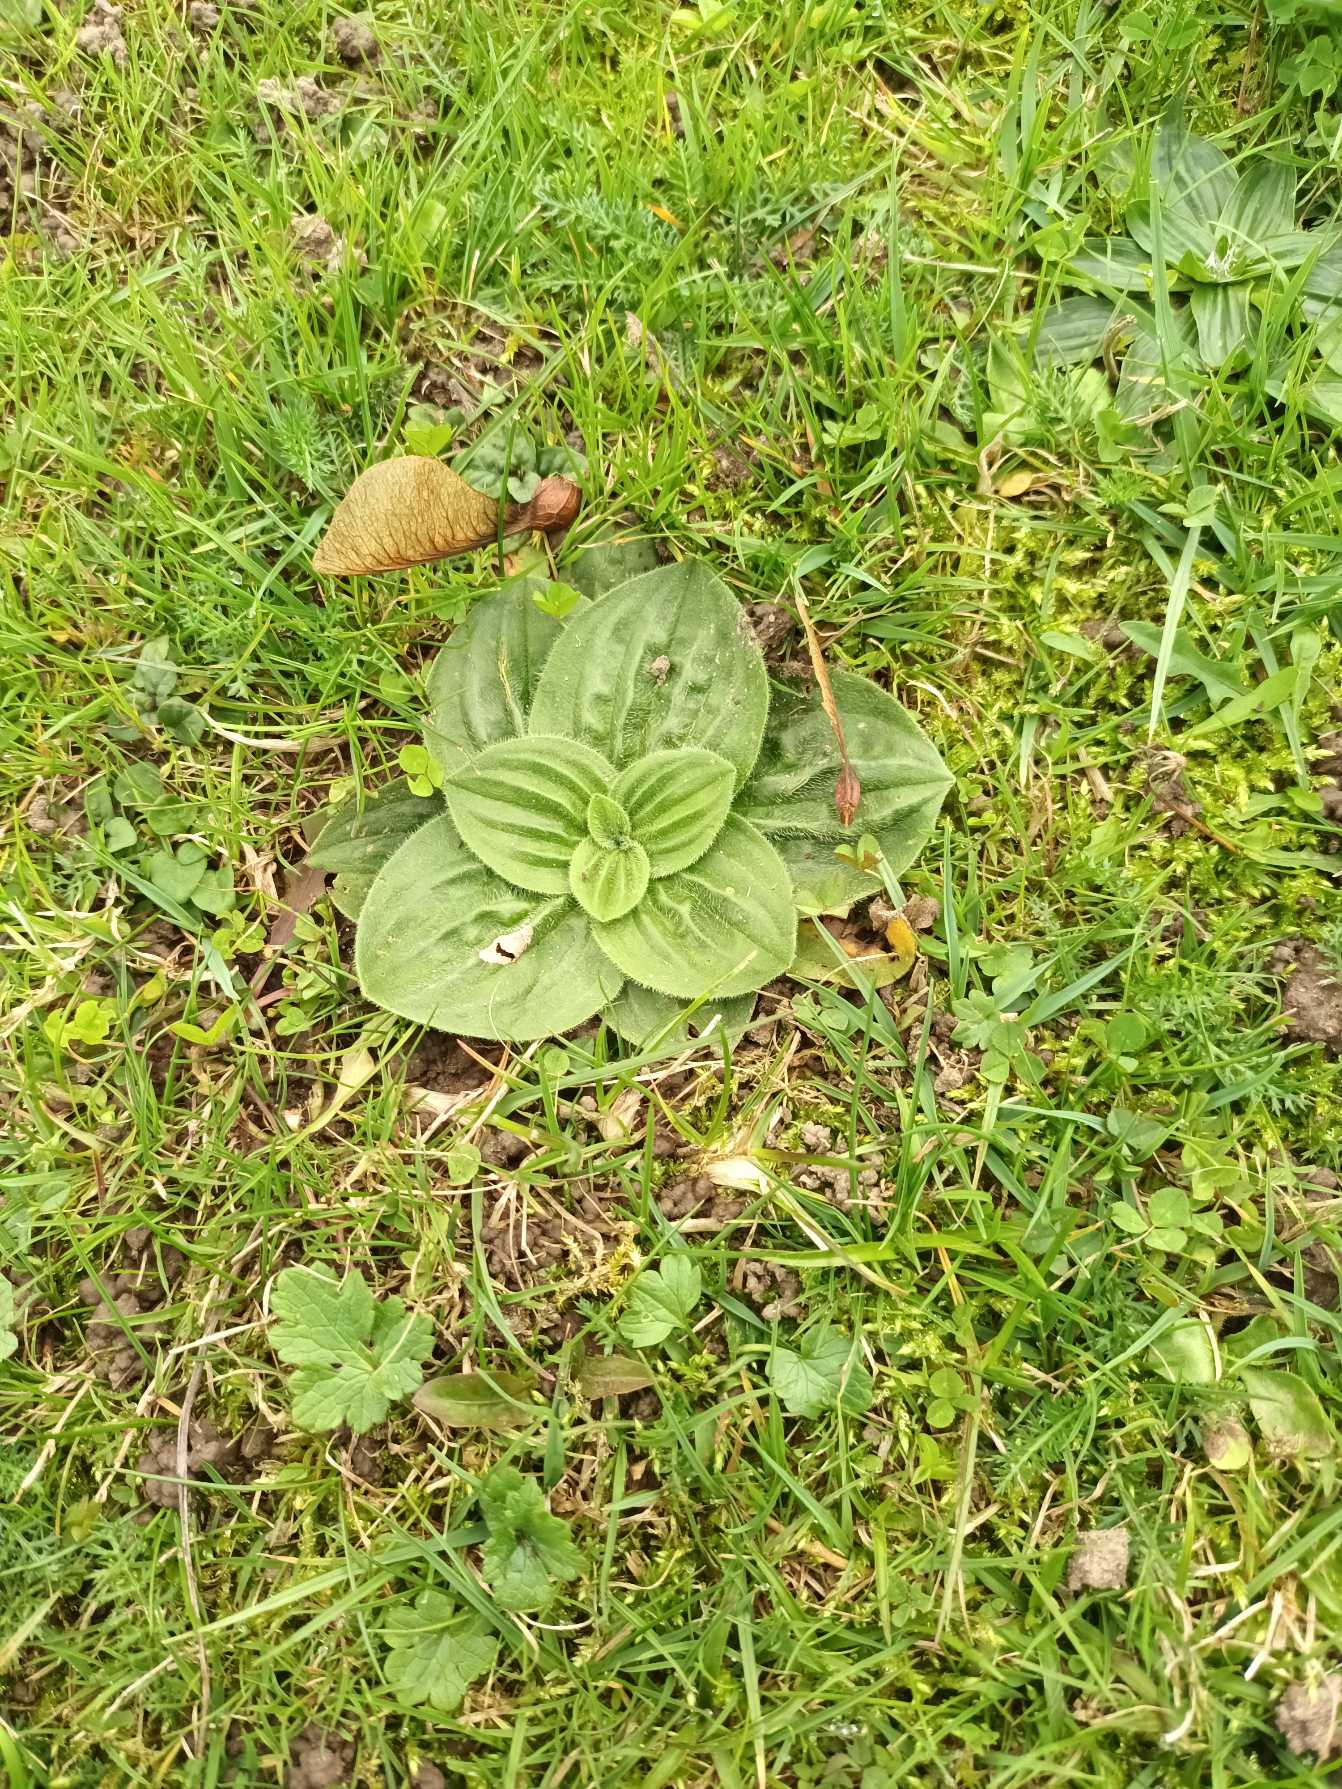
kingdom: Plantae
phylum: Tracheophyta
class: Magnoliopsida
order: Lamiales
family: Plantaginaceae
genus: Plantago
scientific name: Plantago media
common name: Dunet vejbred
